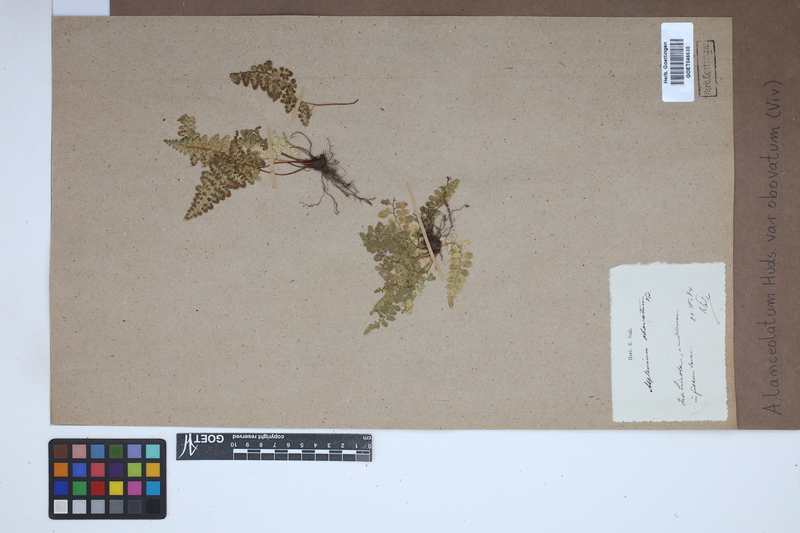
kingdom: Plantae
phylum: Tracheophyta
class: Polypodiopsida
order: Polypodiales
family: Aspleniaceae
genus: Asplenium
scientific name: Asplenium obovatum
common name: Lanceolate spleenwort
